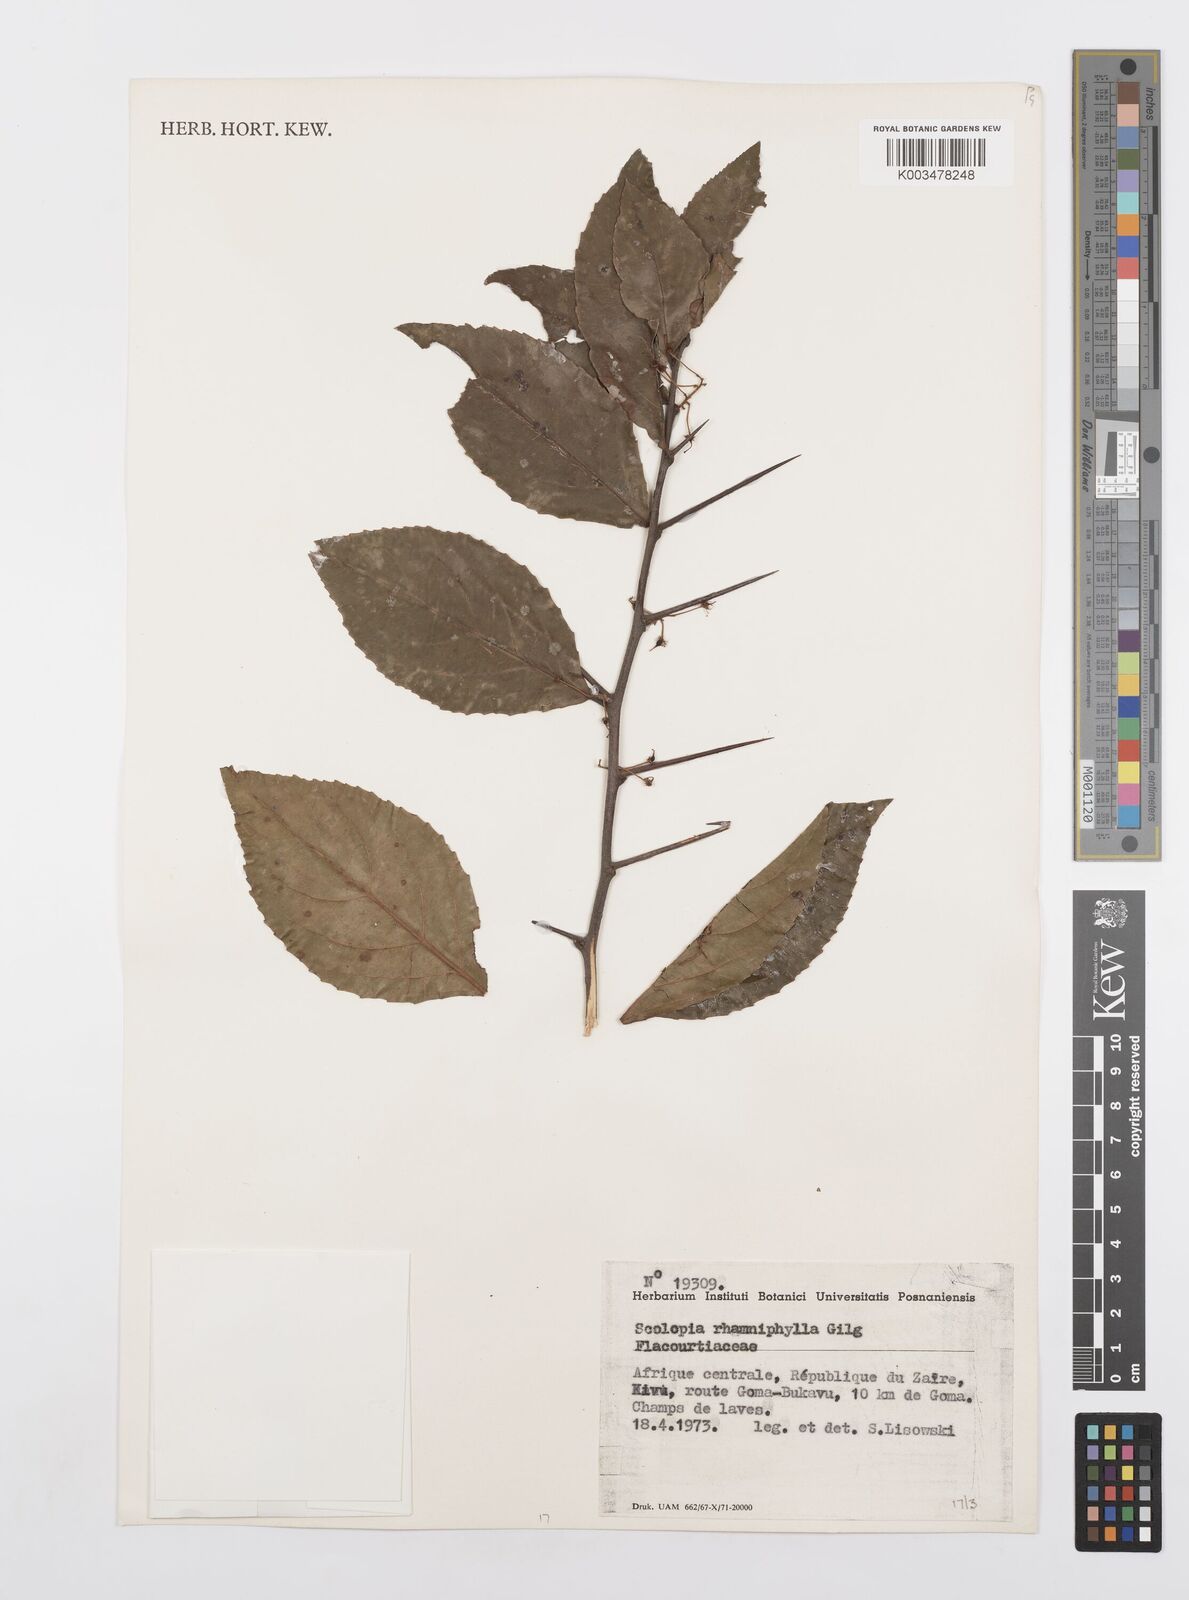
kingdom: Plantae
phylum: Tracheophyta
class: Magnoliopsida
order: Malpighiales
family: Salicaceae
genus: Scolopia
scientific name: Scolopia rhamniphylla
